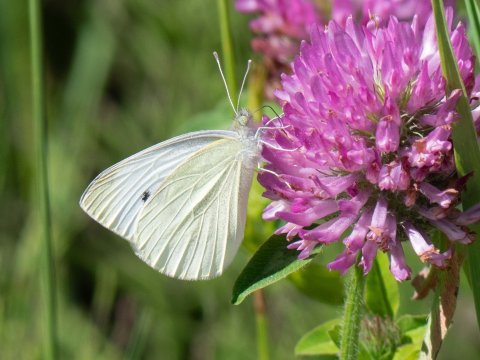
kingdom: Animalia
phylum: Arthropoda
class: Insecta
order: Lepidoptera
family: Pieridae
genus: Pieris
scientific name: Pieris rapae
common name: Cabbage White
